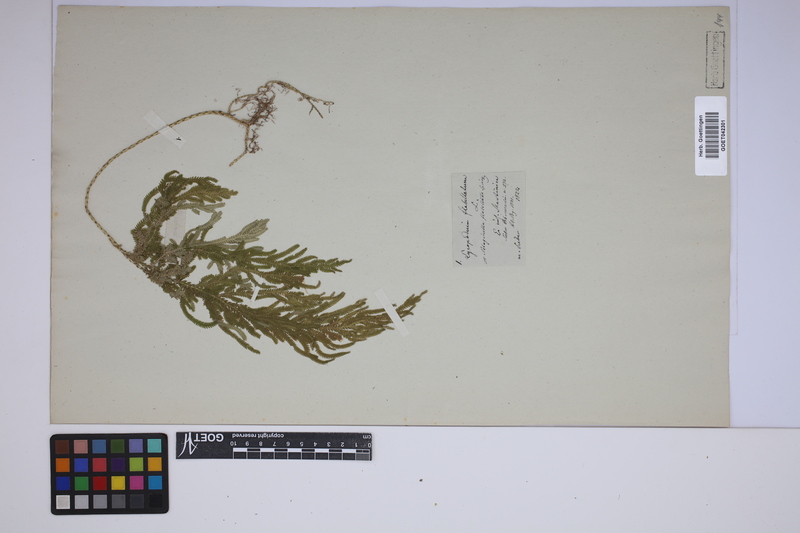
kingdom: Plantae
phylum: Tracheophyta
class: Lycopodiopsida
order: Selaginellales
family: Selaginellaceae
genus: Selaginella
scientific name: Selaginella flabellata
